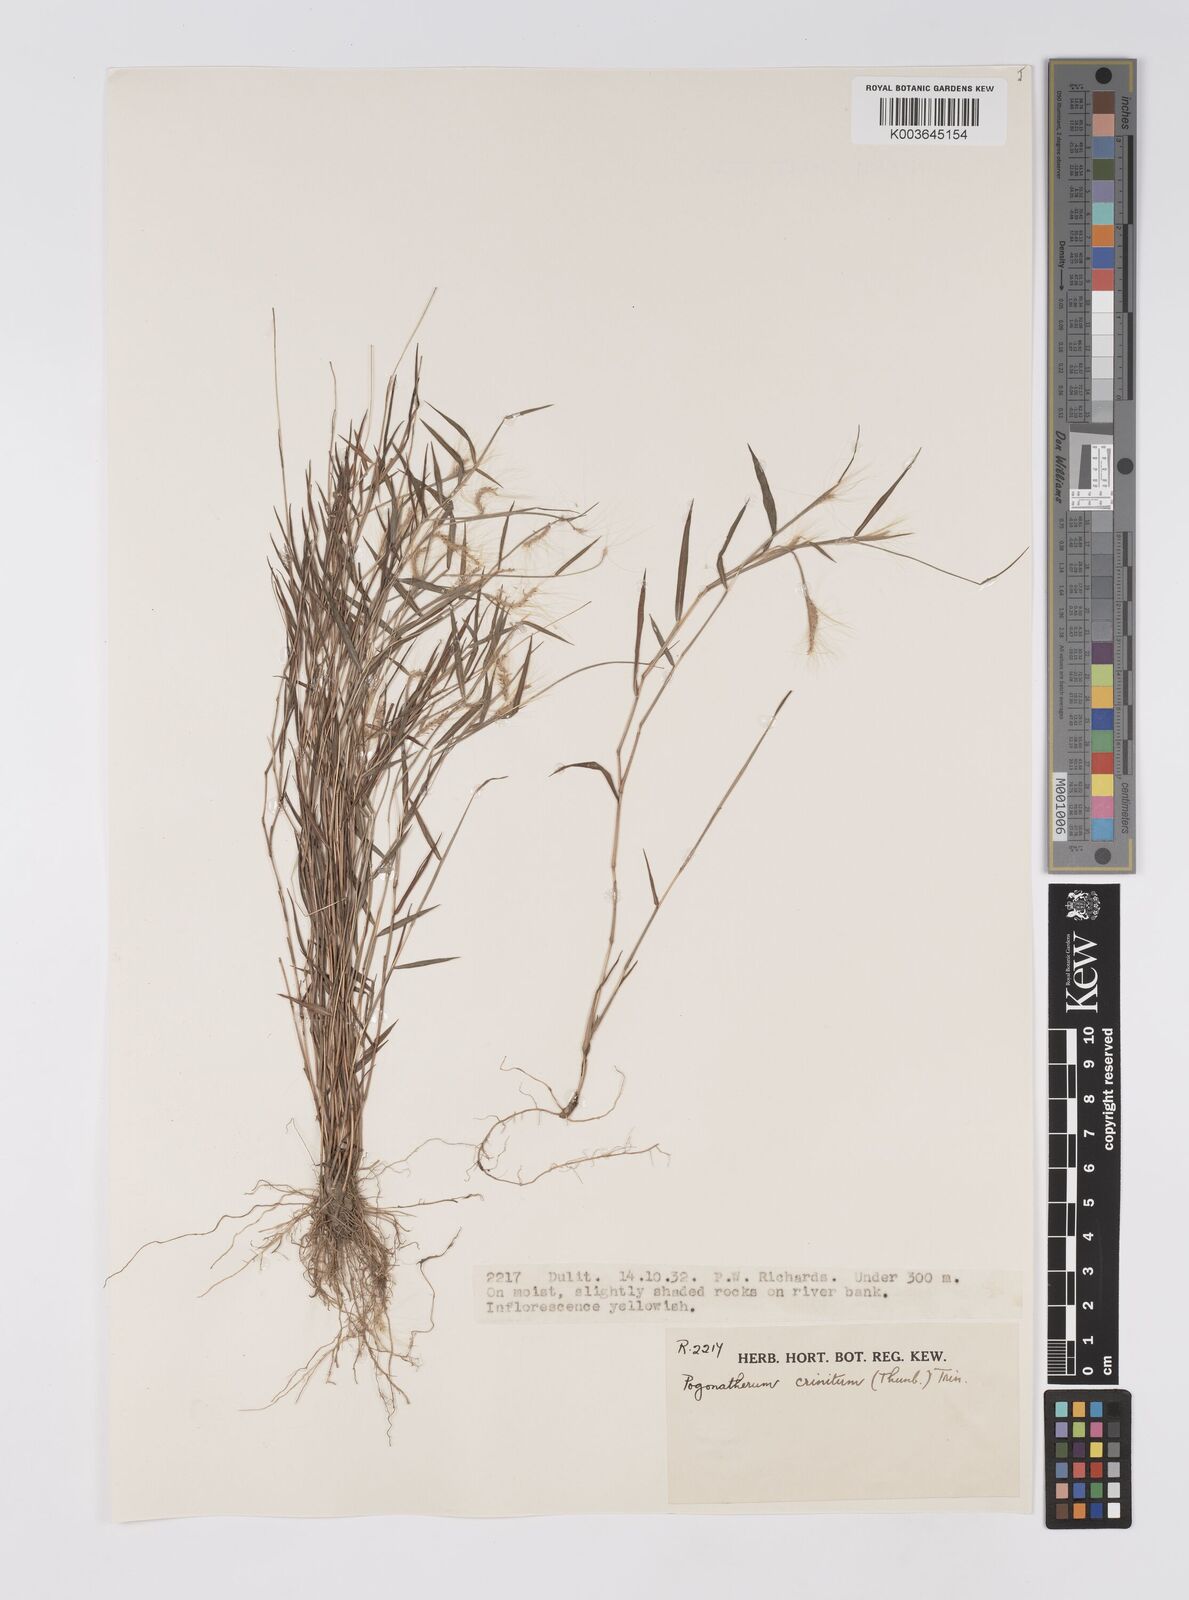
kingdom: Plantae
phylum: Tracheophyta
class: Liliopsida
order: Poales
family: Poaceae
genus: Pogonatherum
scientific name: Pogonatherum crinitum
